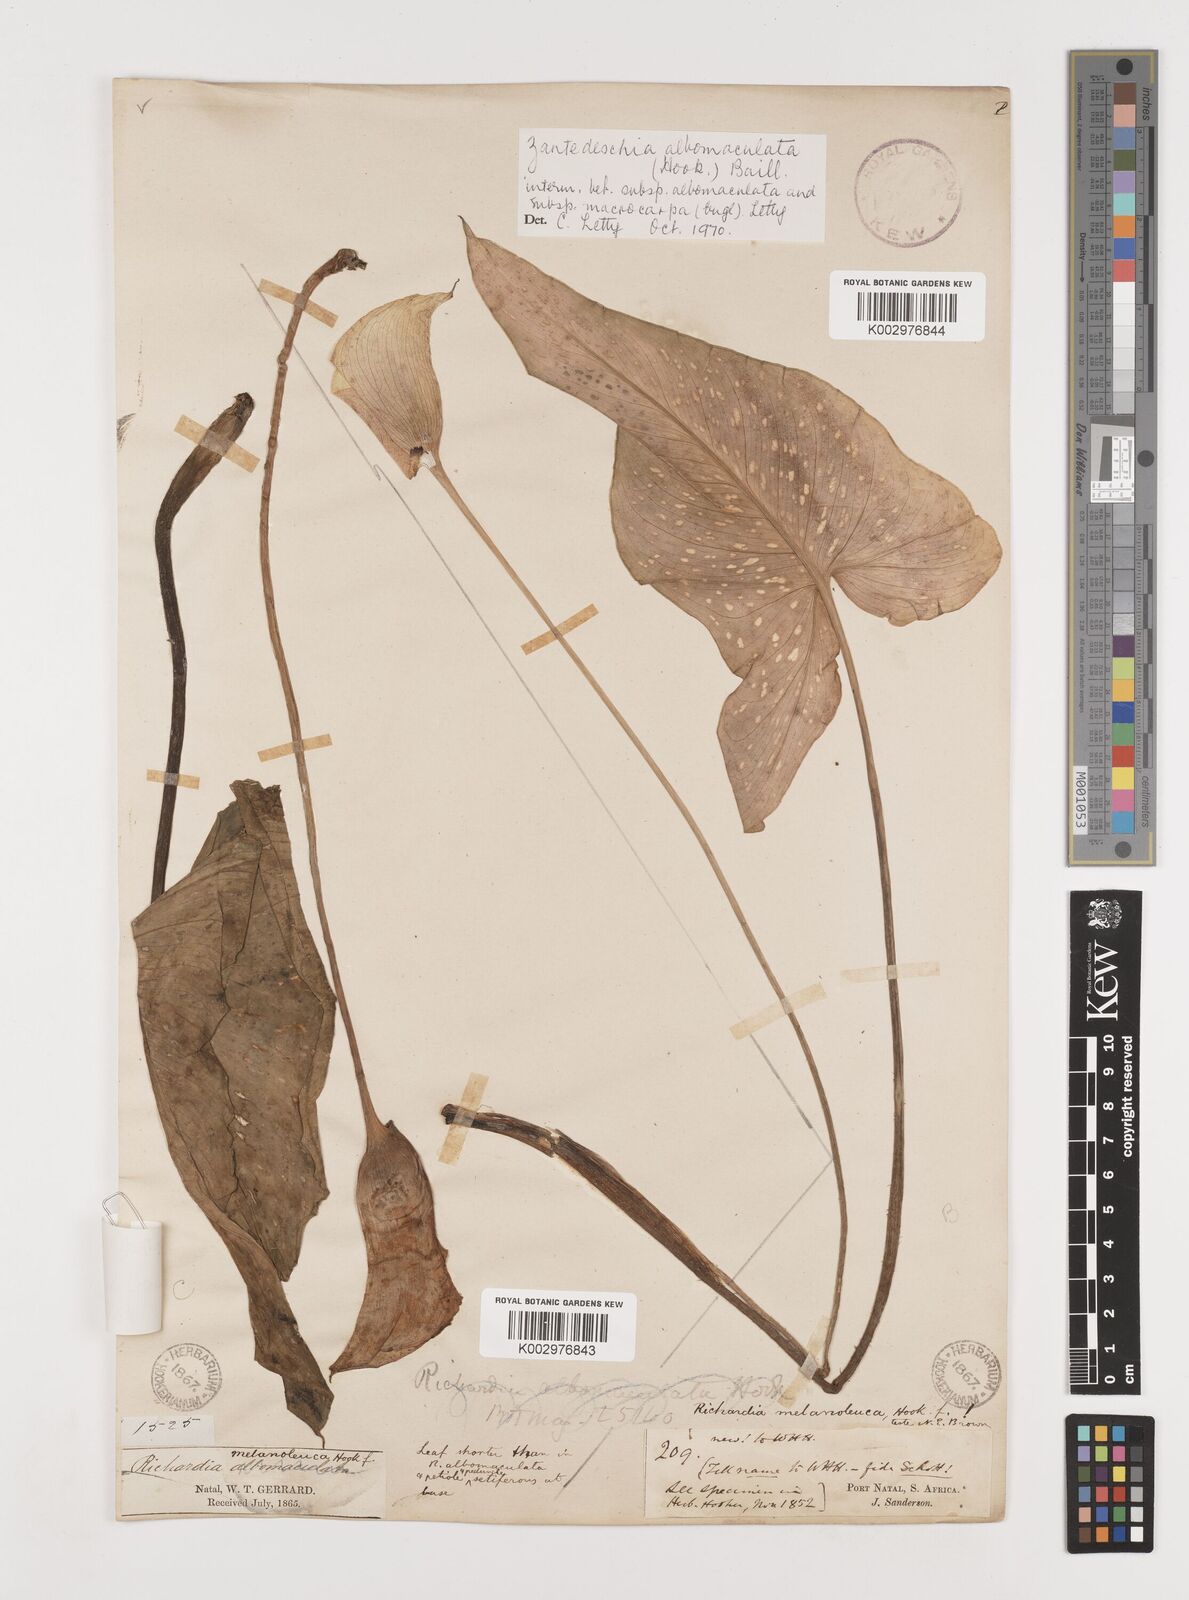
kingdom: Plantae
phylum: Tracheophyta
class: Liliopsida
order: Alismatales
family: Araceae
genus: Zantedeschia
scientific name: Zantedeschia albomaculata
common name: Spotted calla lily
